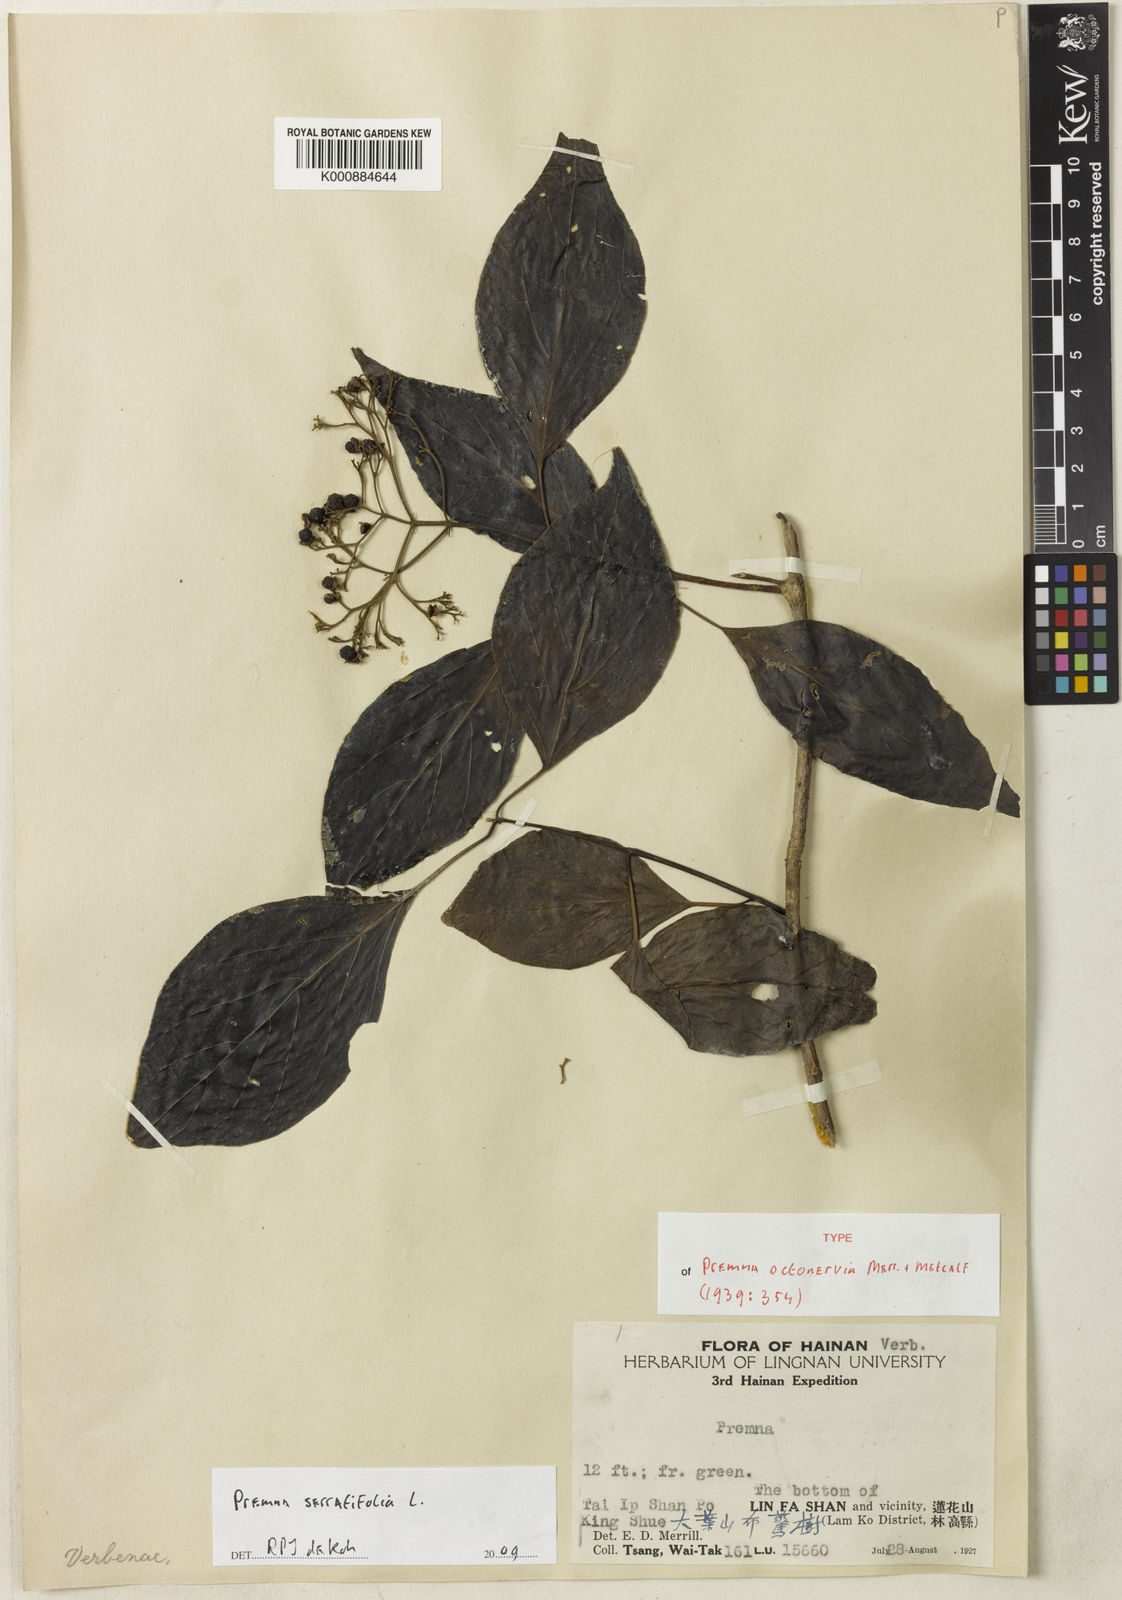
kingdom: Plantae
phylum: Tracheophyta
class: Magnoliopsida
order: Lamiales
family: Lamiaceae
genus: Premna
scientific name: Premna acutata
